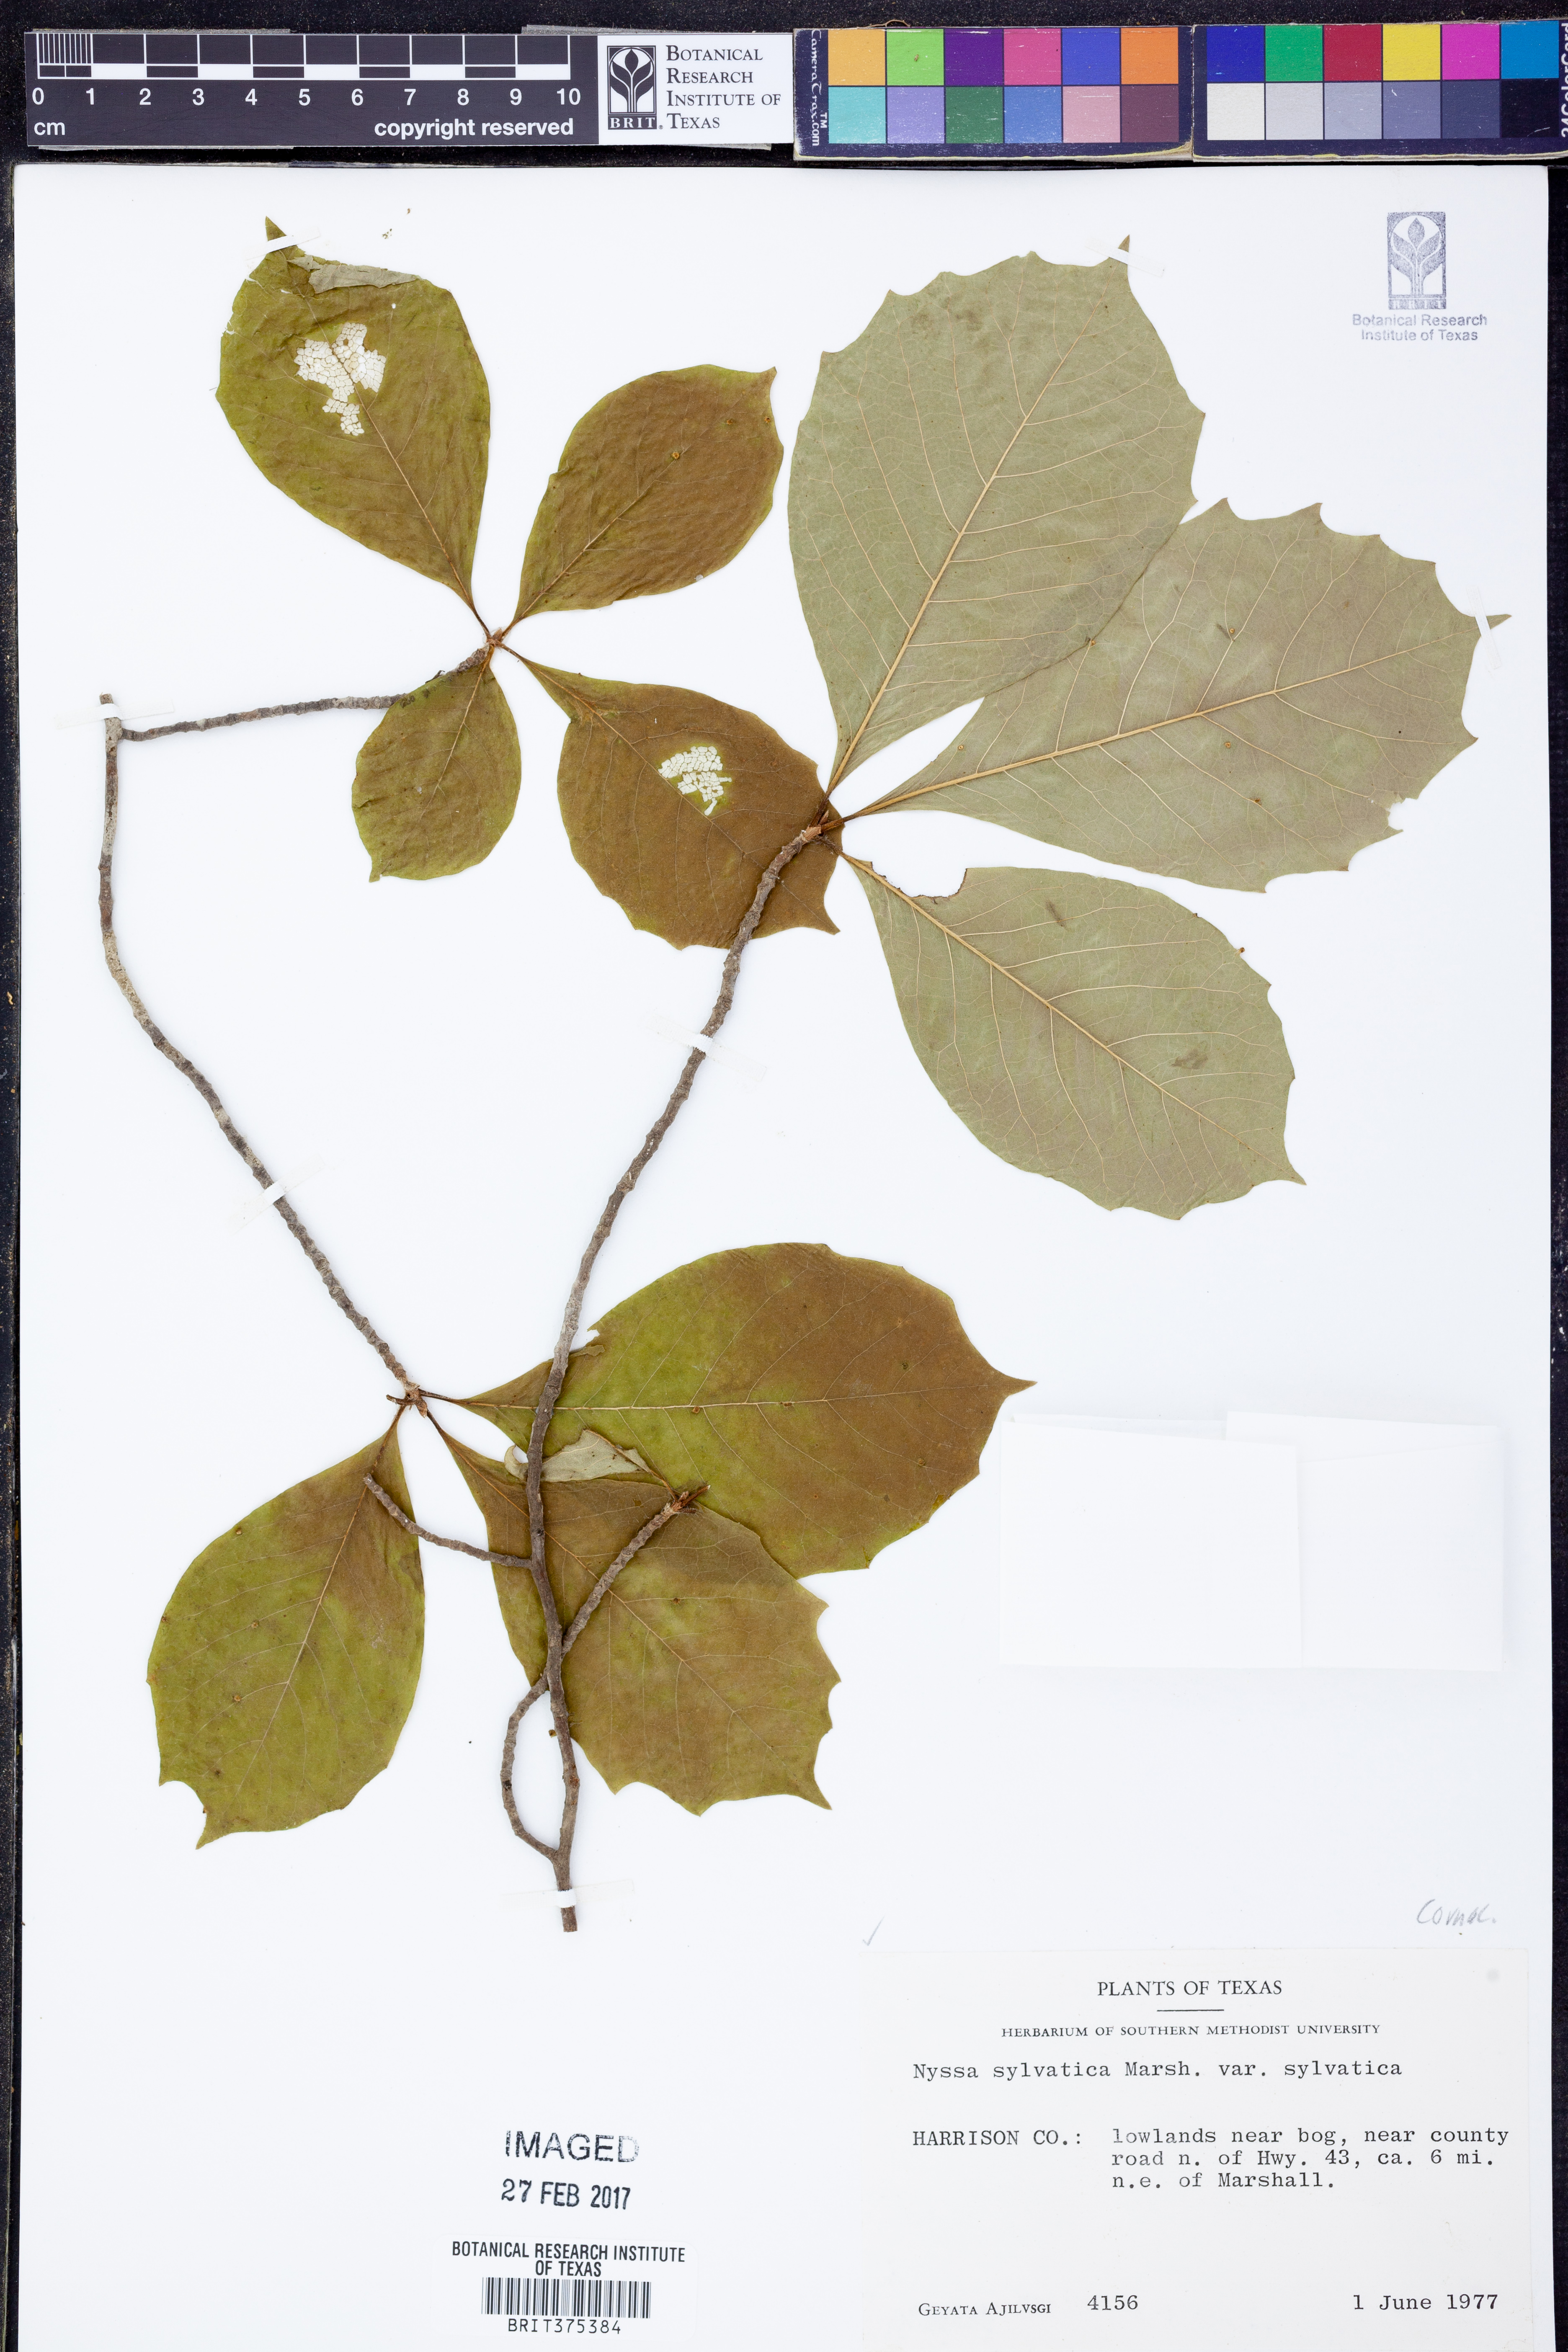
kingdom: Plantae
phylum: Tracheophyta
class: Magnoliopsida
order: Cornales
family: Nyssaceae
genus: Nyssa
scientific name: Nyssa sylvatica
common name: Black tupelo
